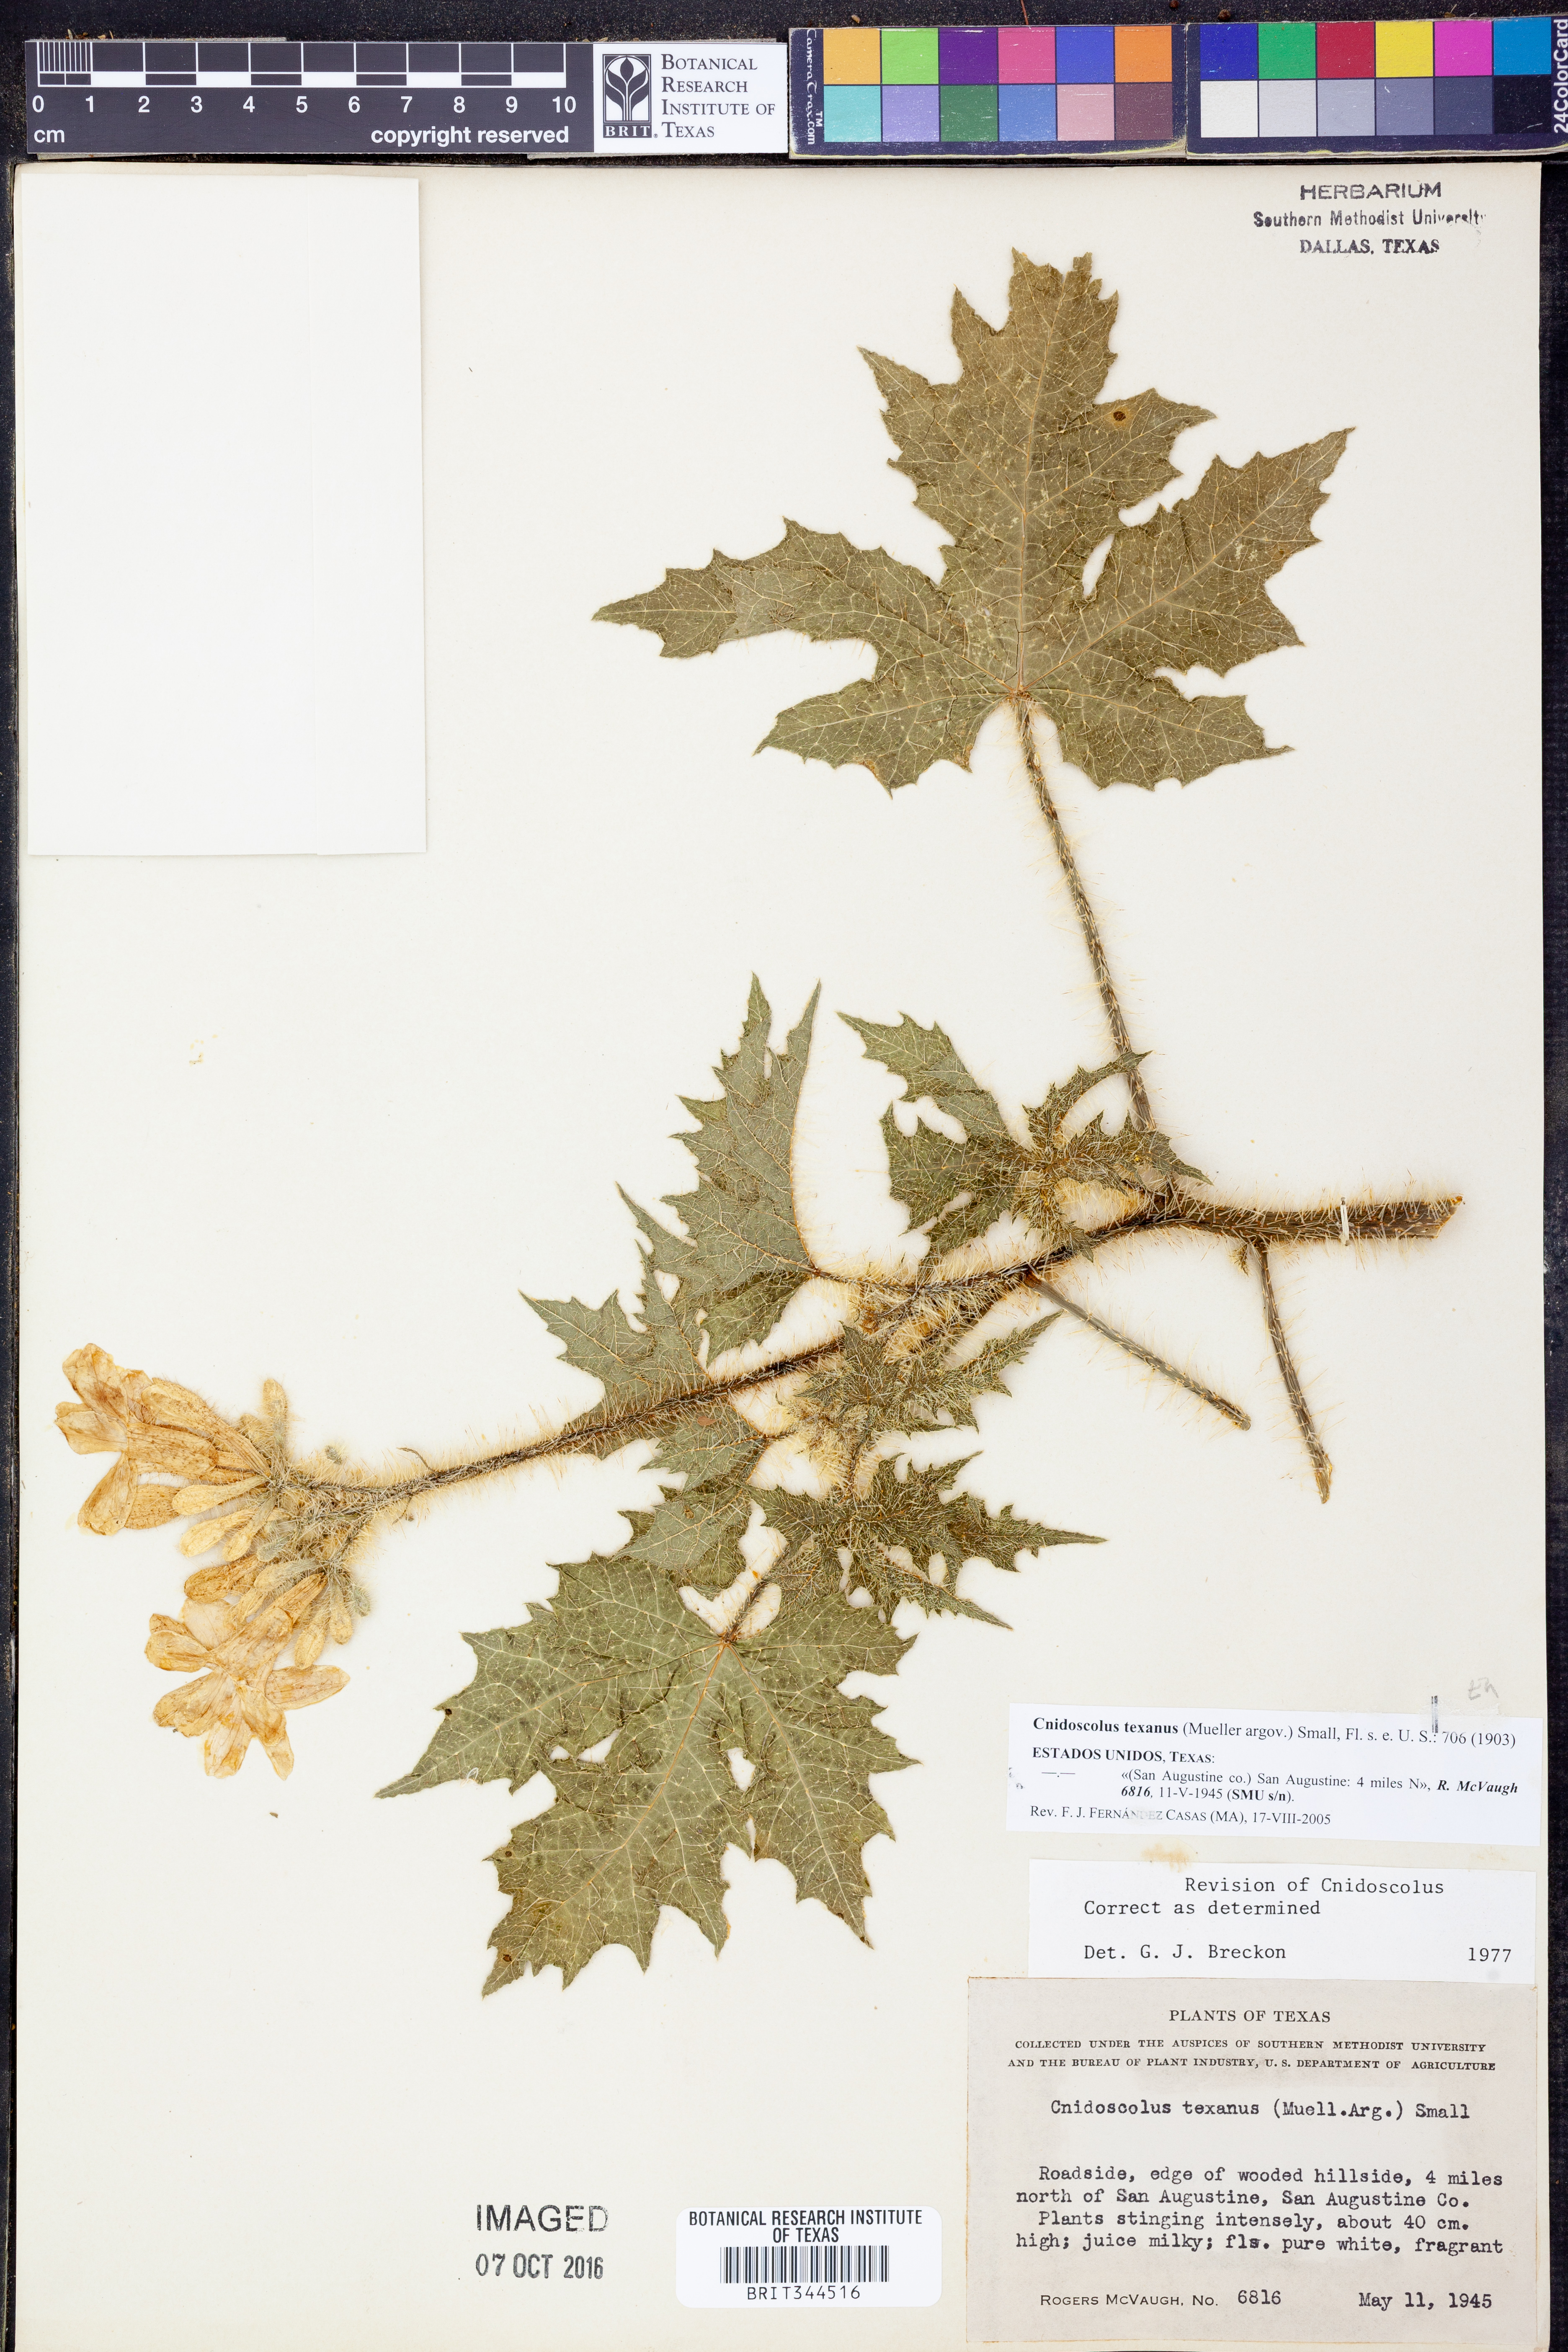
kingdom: Plantae
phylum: Tracheophyta
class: Magnoliopsida
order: Malpighiales
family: Euphorbiaceae
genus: Cnidoscolus
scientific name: Cnidoscolus texanus
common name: Texas bull-nettle
